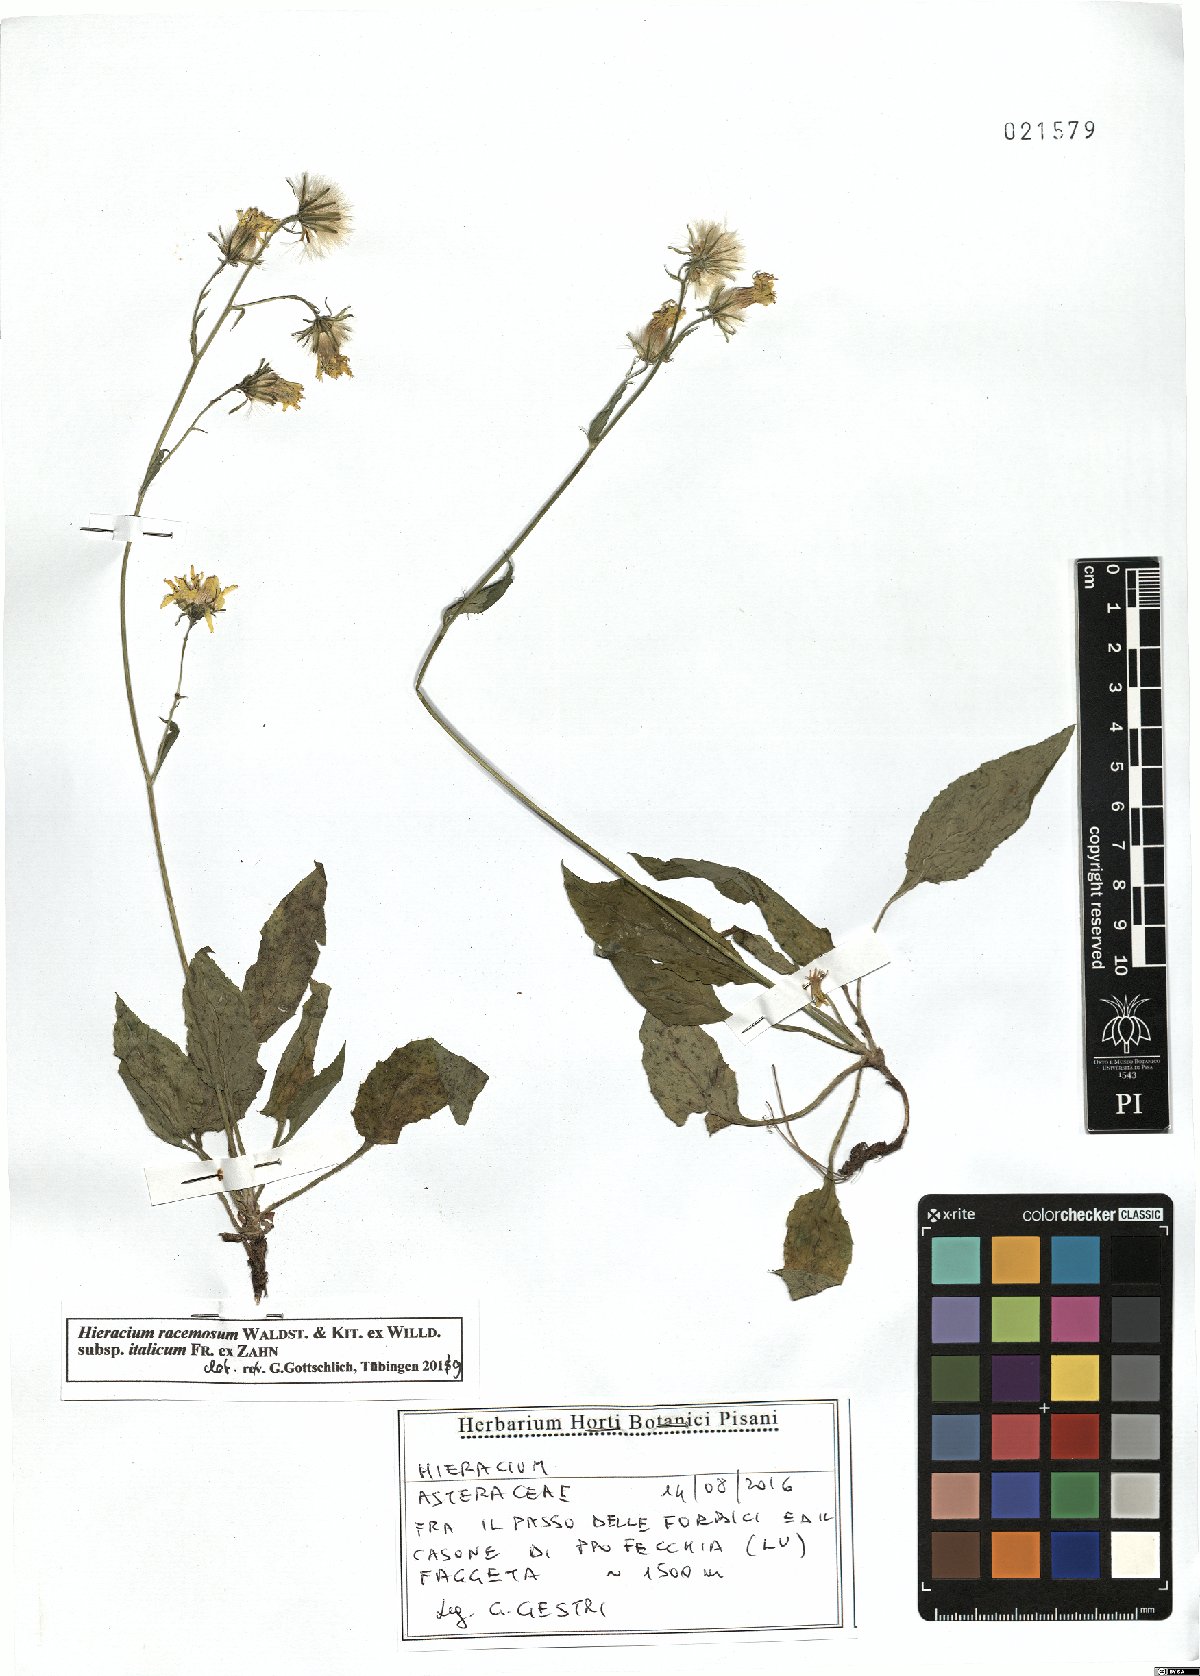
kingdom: Plantae
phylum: Tracheophyta
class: Magnoliopsida
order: Asterales
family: Asteraceae
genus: Hieracium
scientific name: Hieracium racemosum
